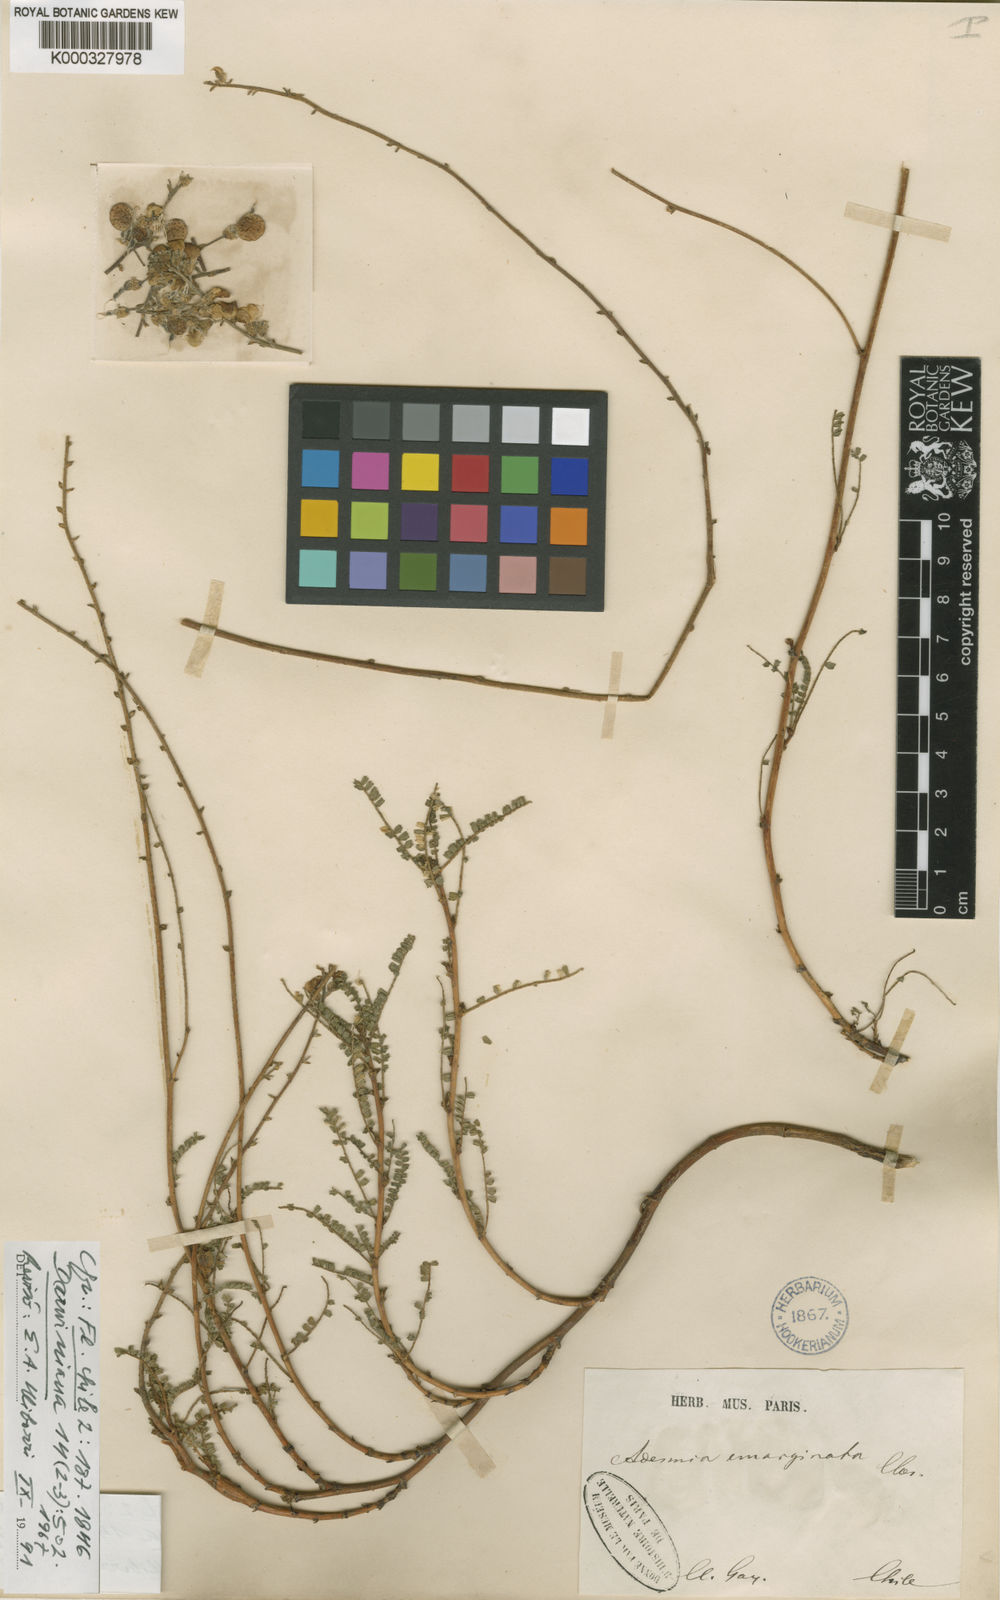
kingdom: Plantae
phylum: Tracheophyta
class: Magnoliopsida
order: Fabales
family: Fabaceae
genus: Adesmia
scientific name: Adesmia emarginata
